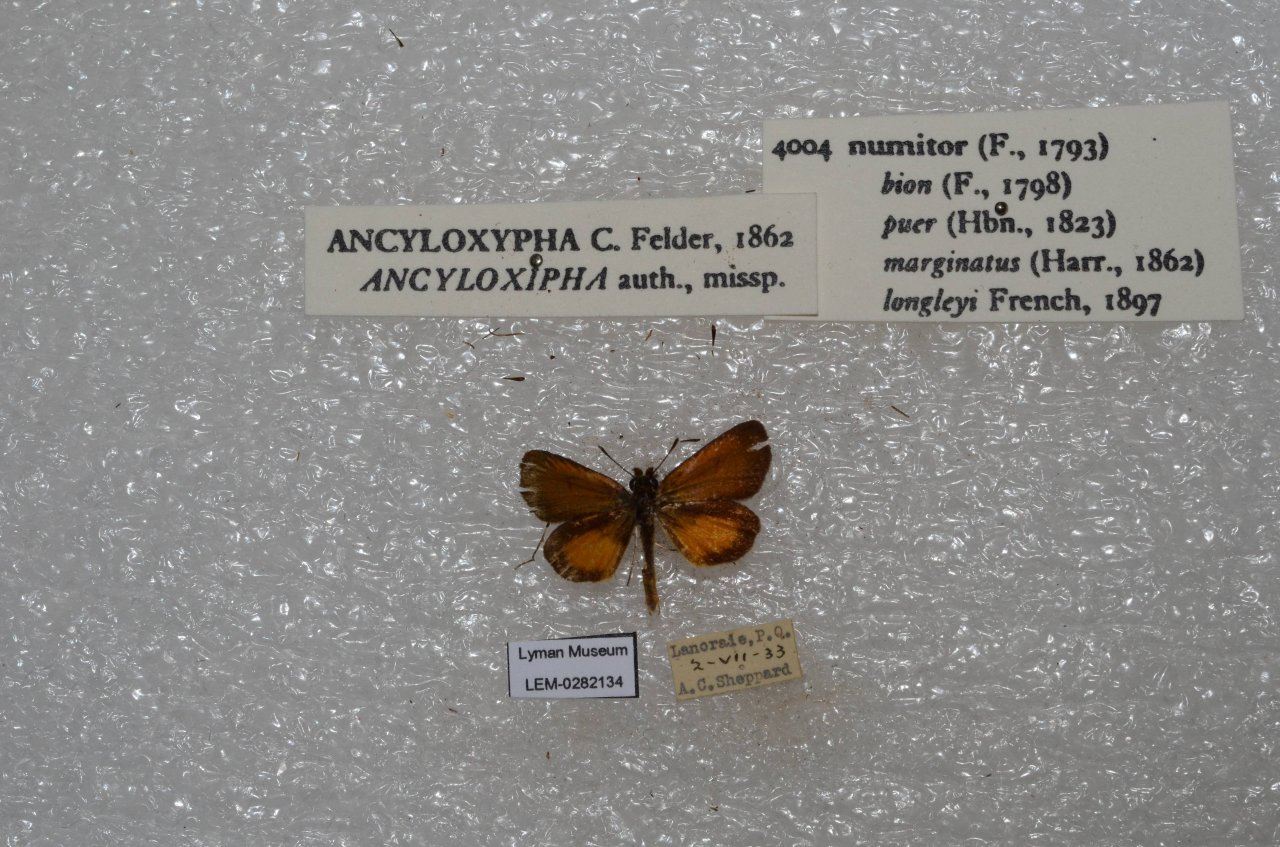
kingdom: Animalia
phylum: Arthropoda
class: Insecta
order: Lepidoptera
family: Hesperiidae
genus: Ancyloxypha
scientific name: Ancyloxypha numitor
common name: Least Skipper
